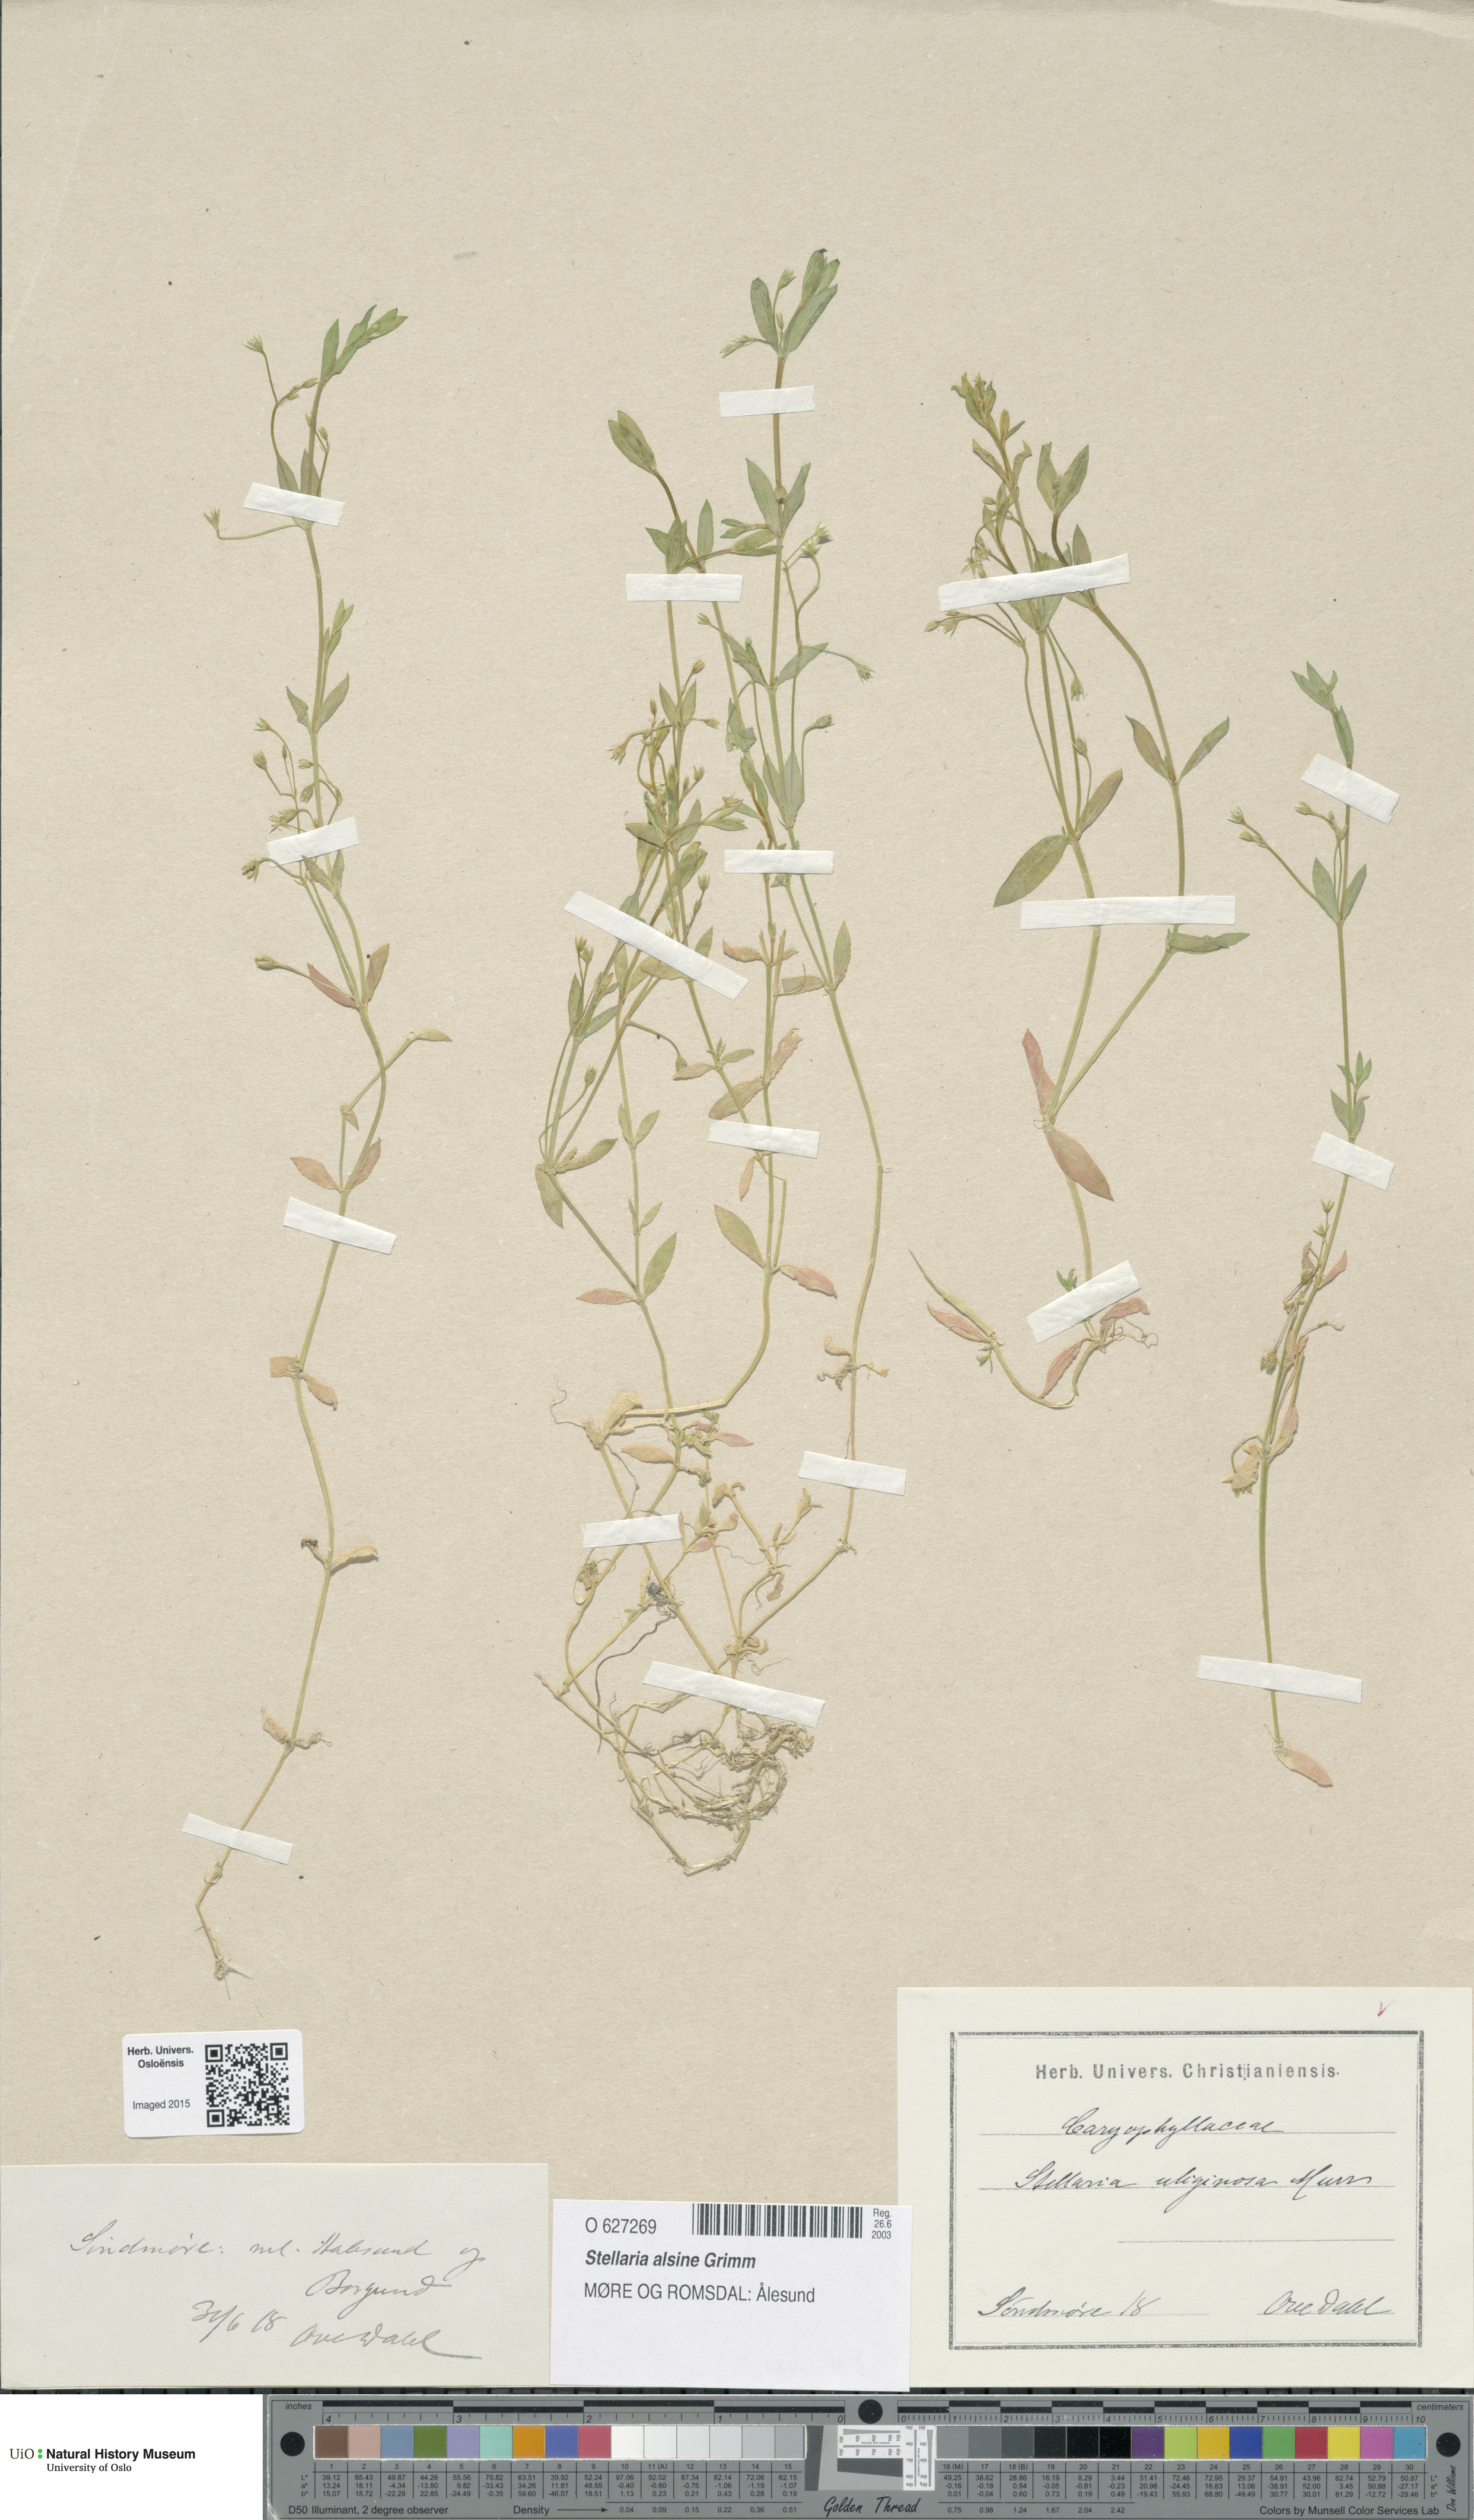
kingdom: Plantae
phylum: Tracheophyta
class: Magnoliopsida
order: Caryophyllales
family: Caryophyllaceae
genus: Stellaria
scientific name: Stellaria alsine
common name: Bog stitchwort
